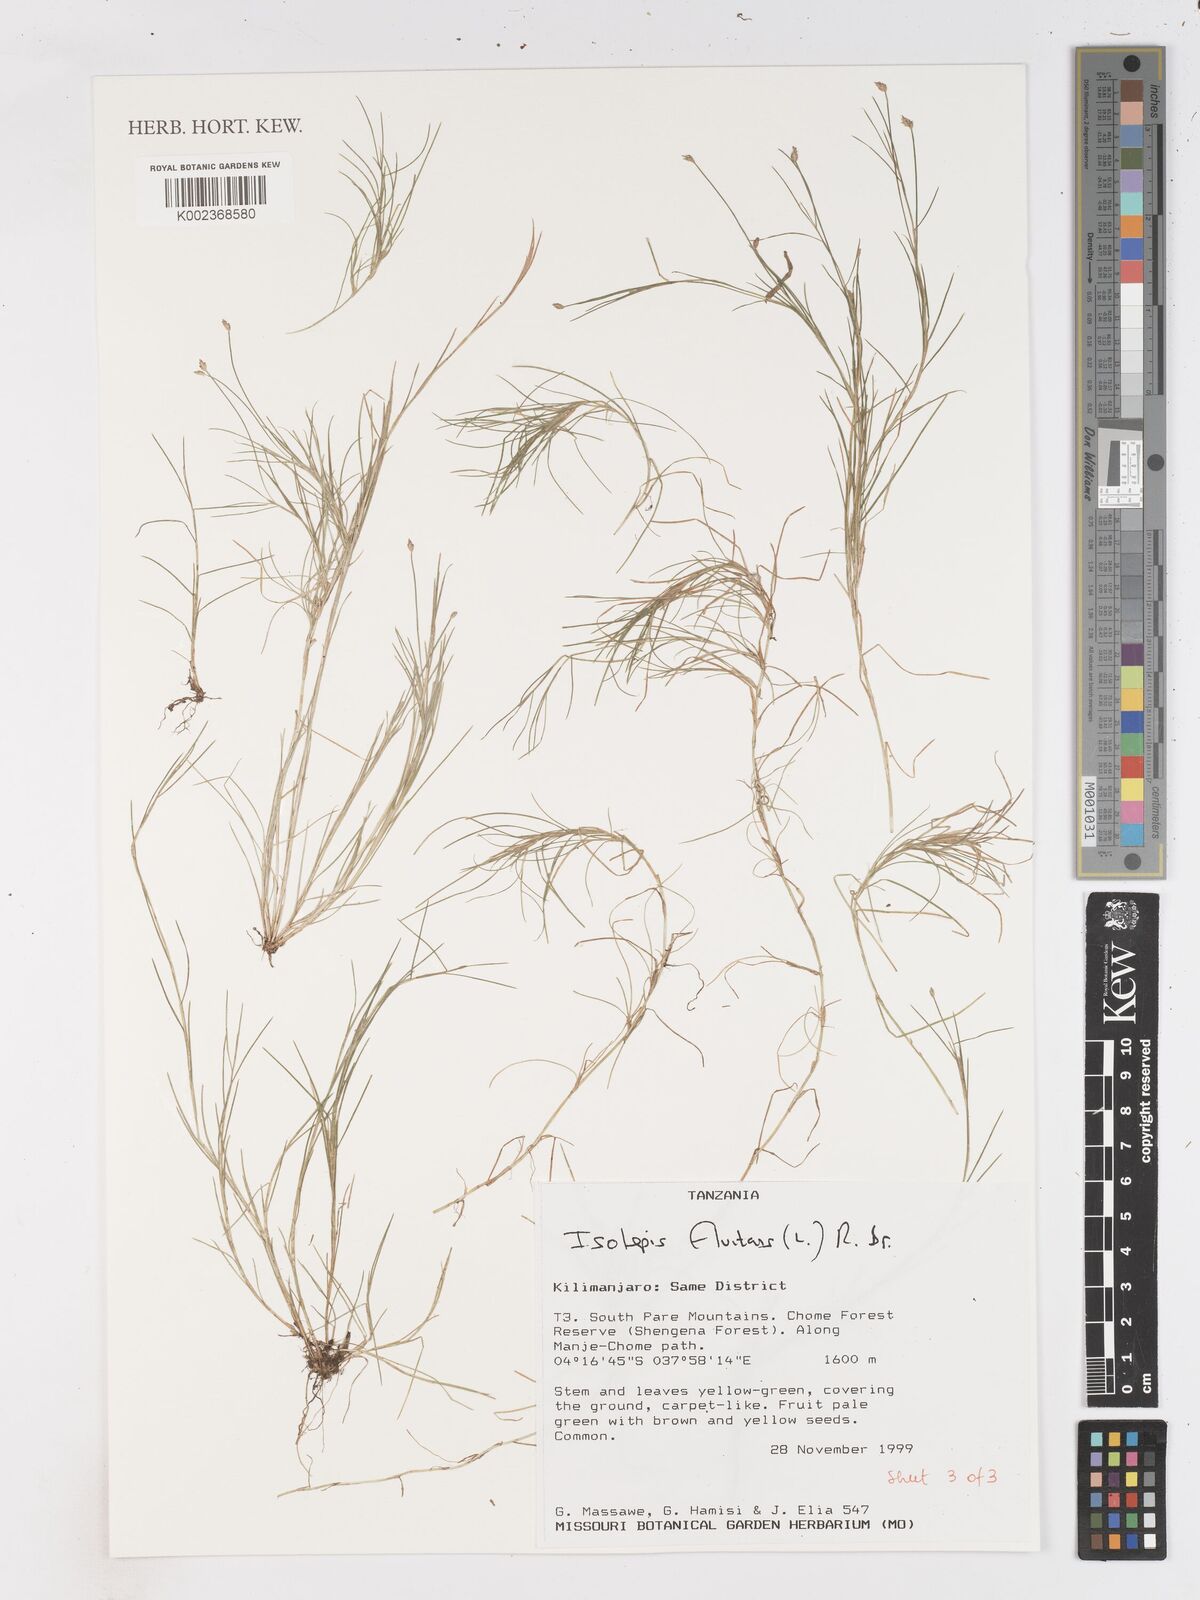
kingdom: Plantae
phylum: Tracheophyta
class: Liliopsida
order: Poales
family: Cyperaceae
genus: Isolepis
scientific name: Isolepis fluitans
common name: Floating club-rush
